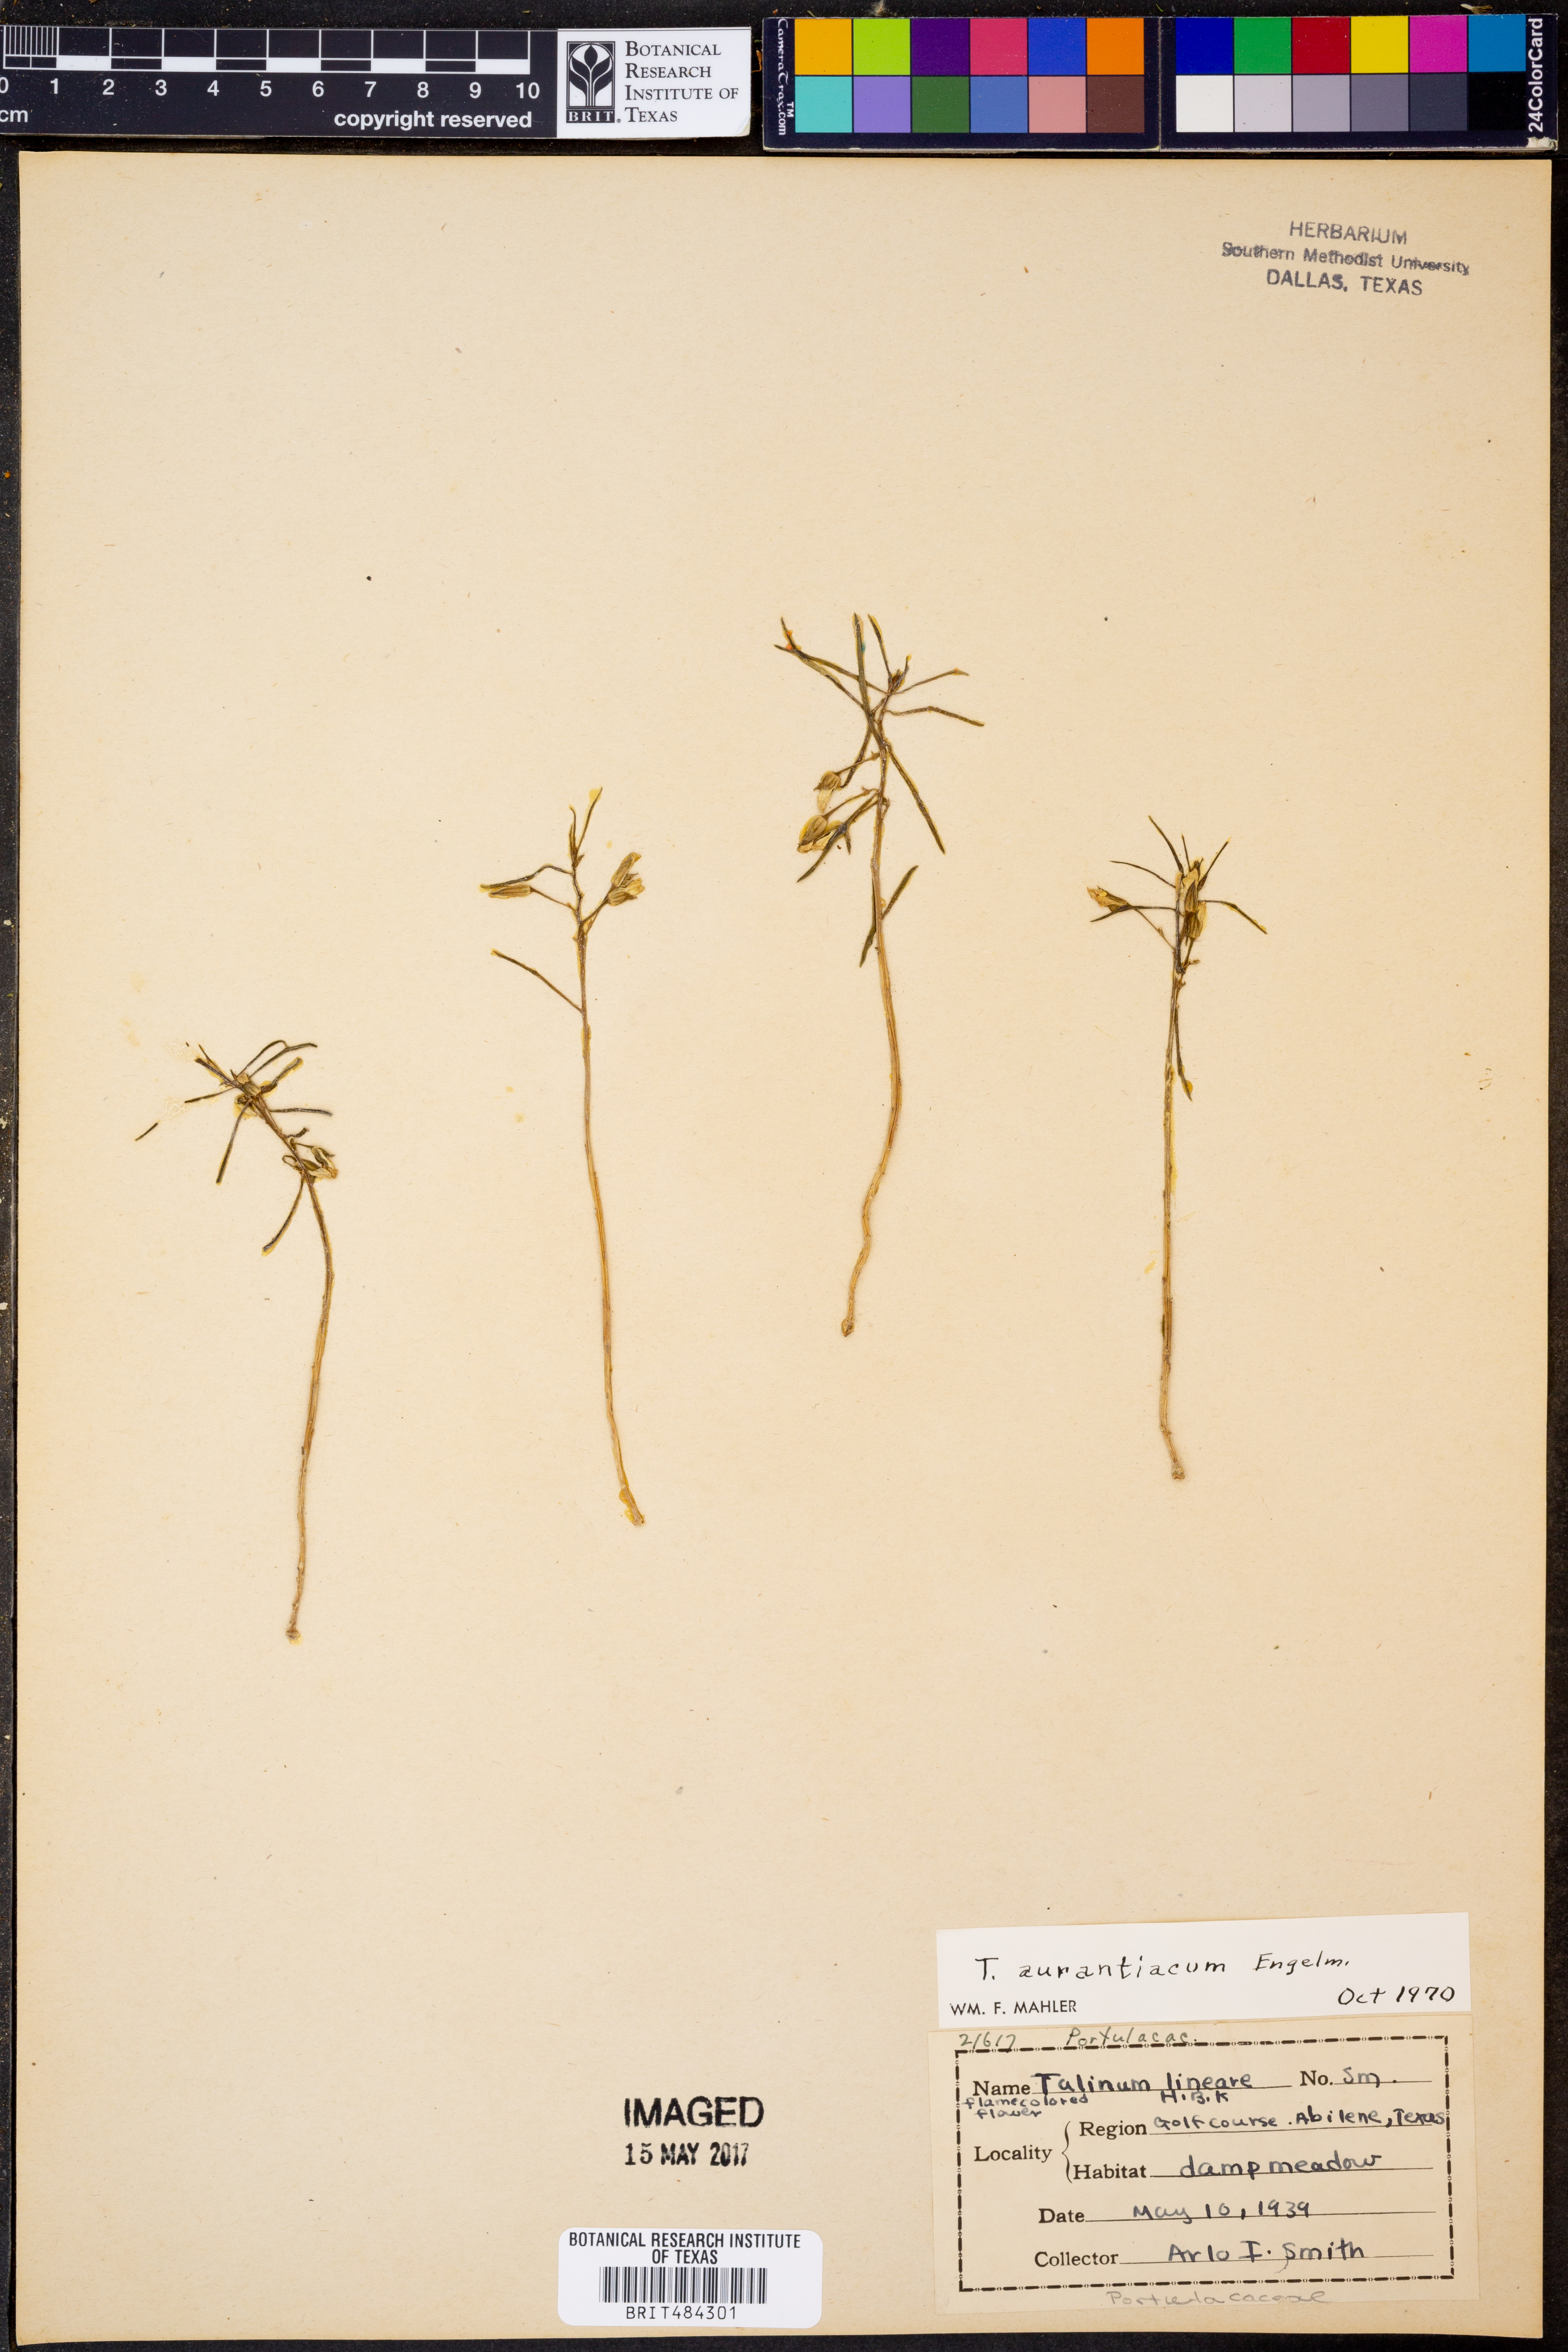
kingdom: Plantae
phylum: Tracheophyta
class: Magnoliopsida
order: Caryophyllales
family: Montiaceae
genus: Phemeranthus
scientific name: Phemeranthus aurantiacus
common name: Orange fameflower
